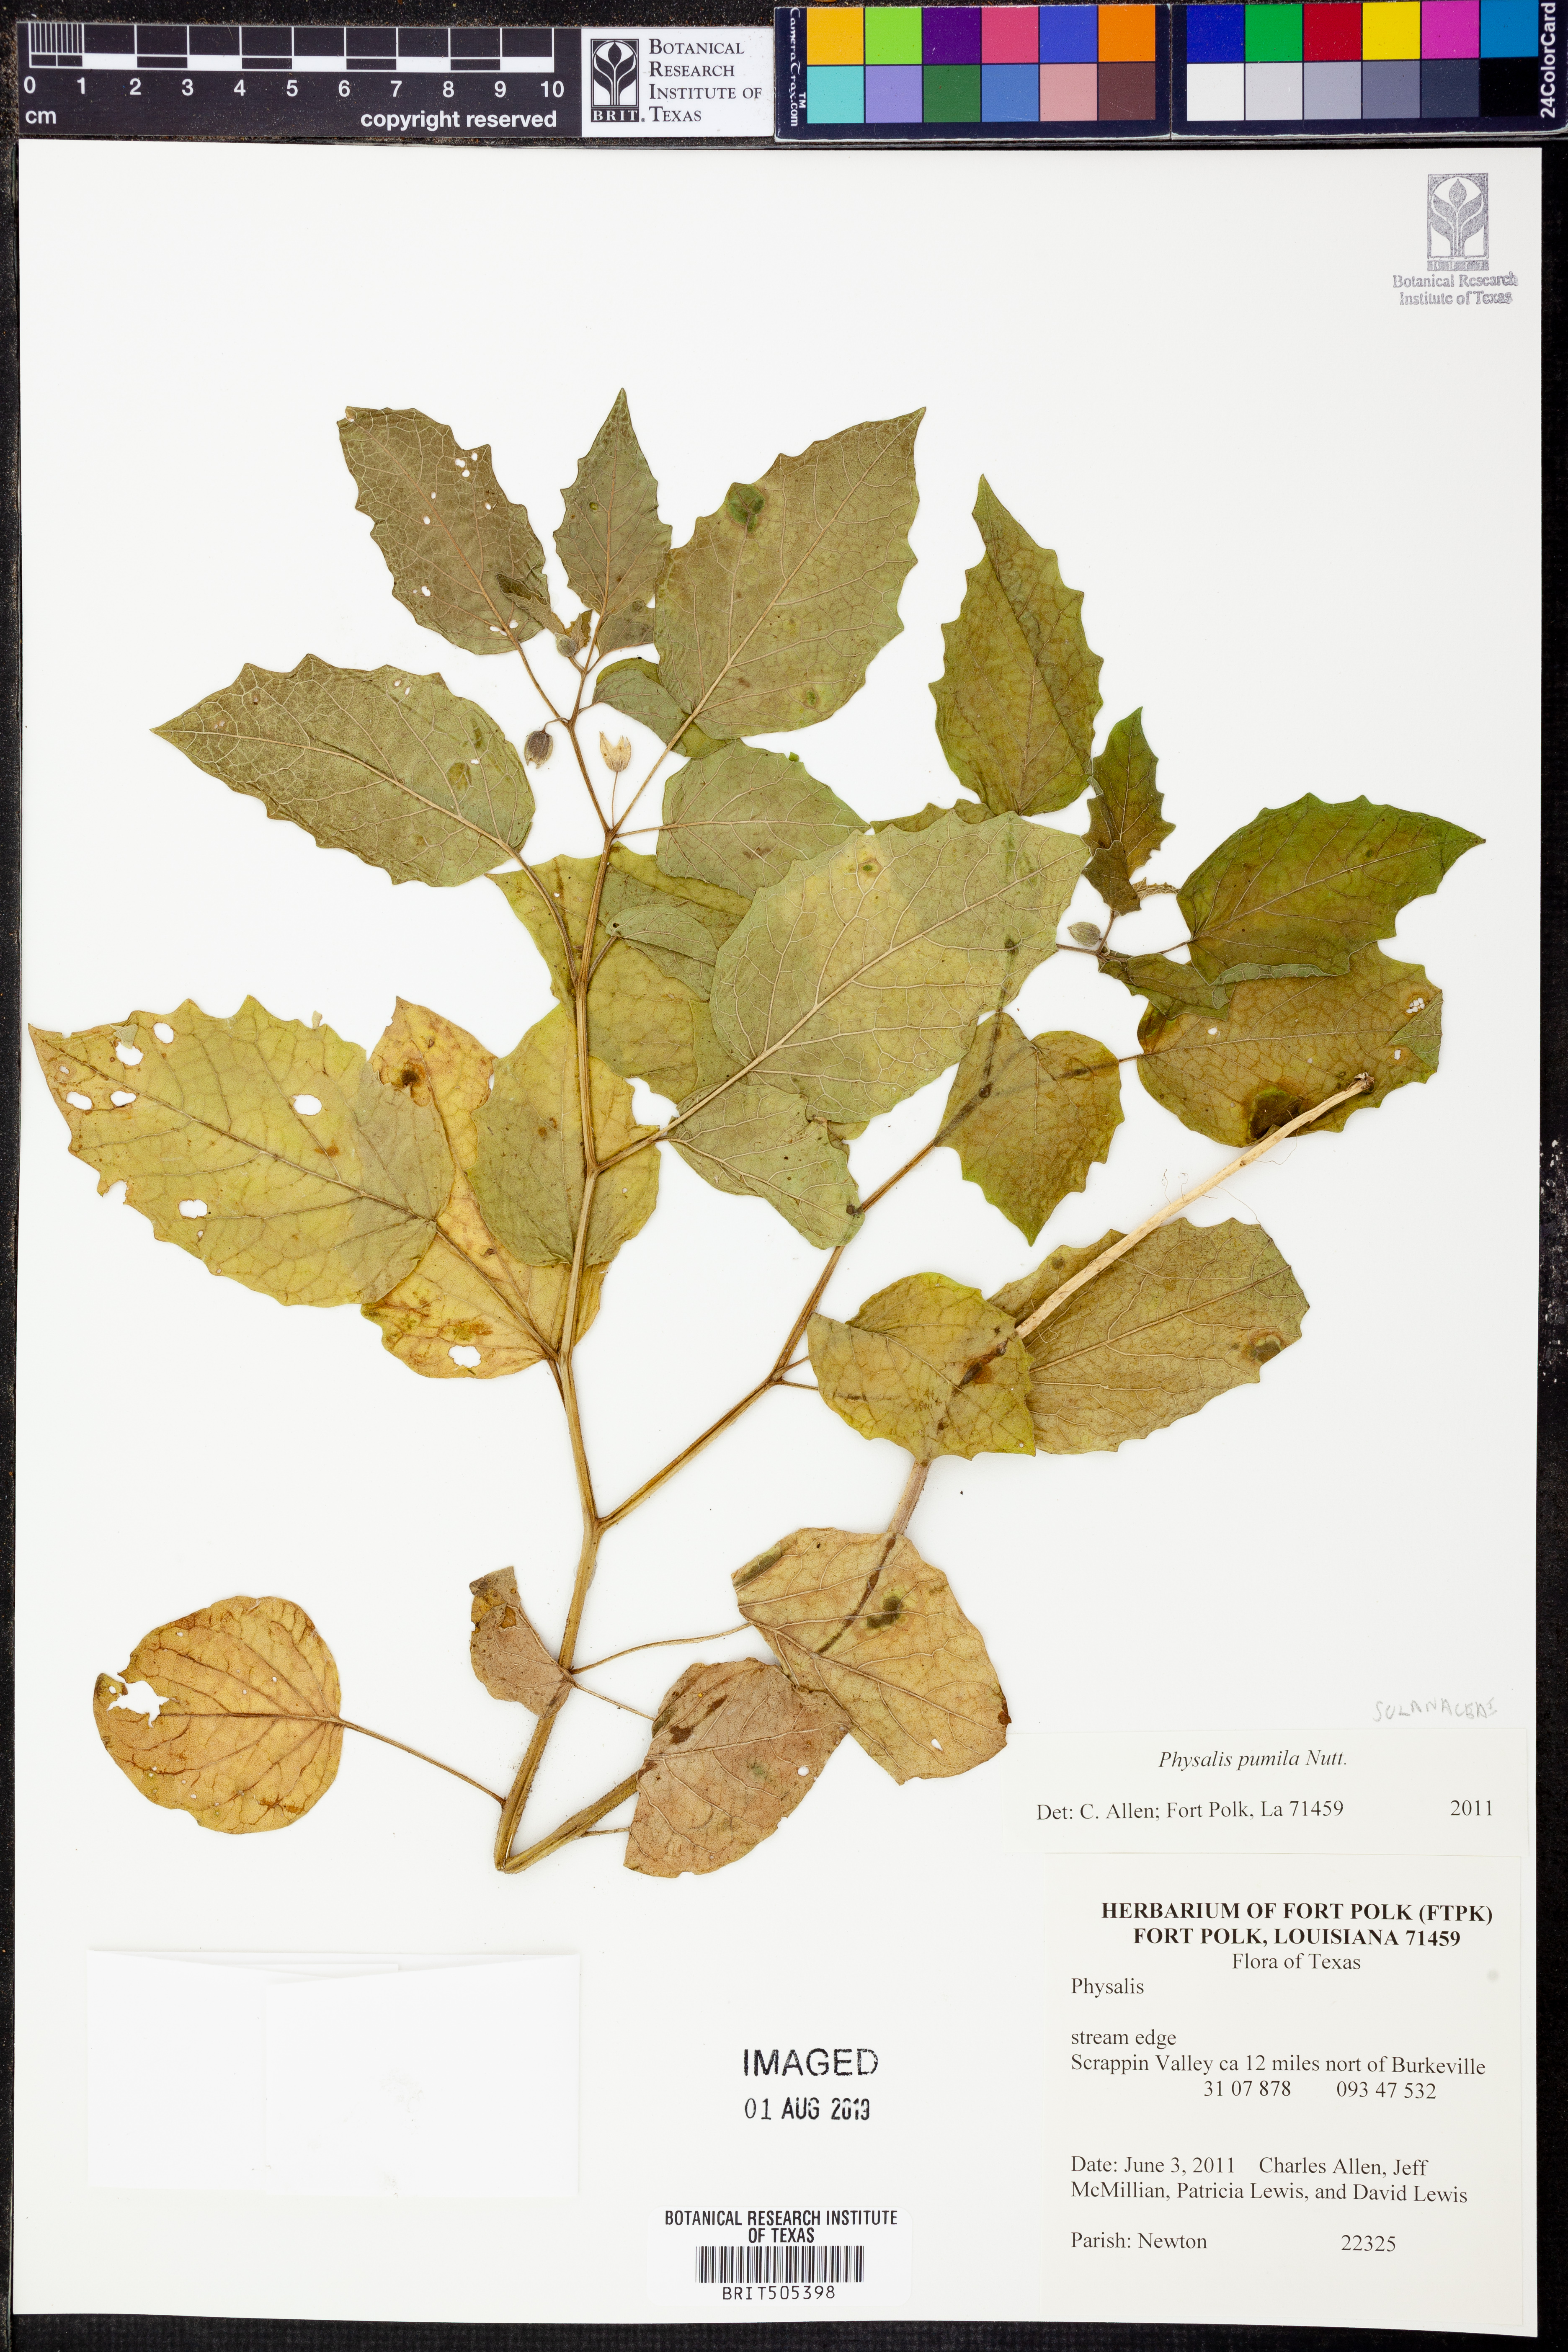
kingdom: Plantae
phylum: Tracheophyta
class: Magnoliopsida
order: Solanales
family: Solanaceae
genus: Physalis
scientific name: Physalis pumila
